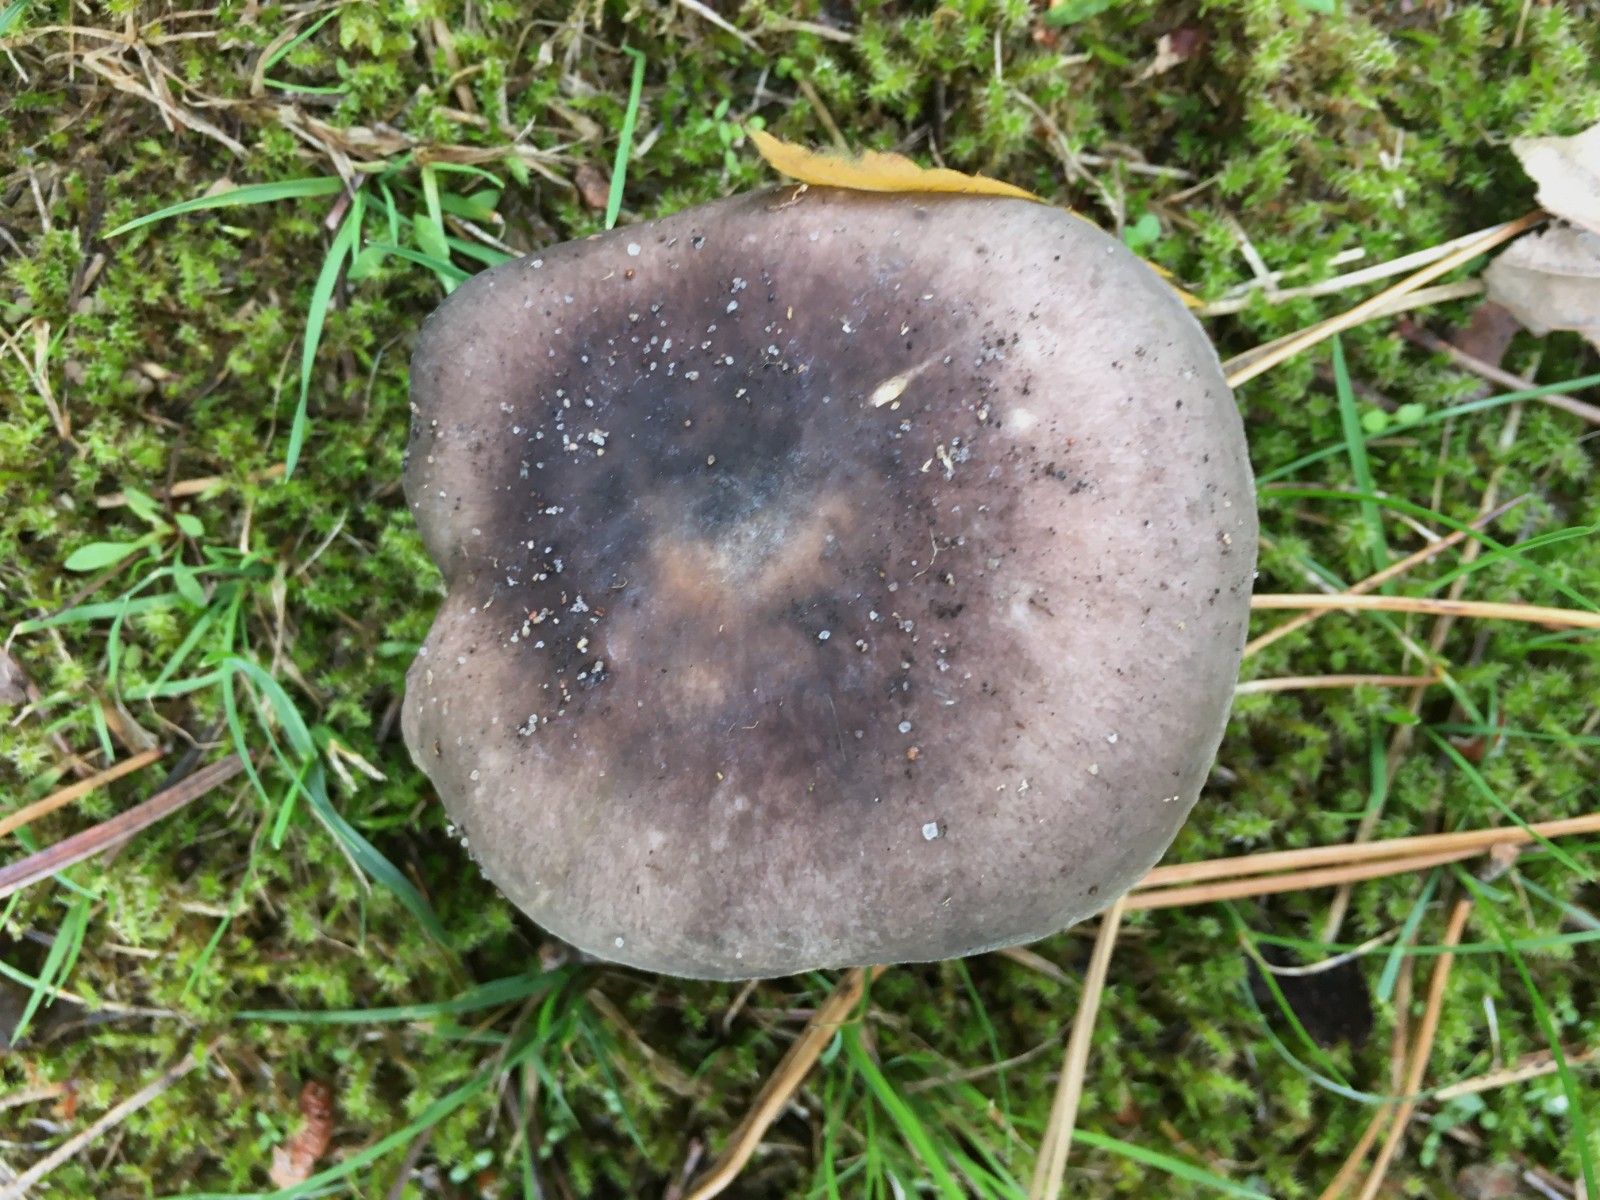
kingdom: Fungi
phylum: Basidiomycota
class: Agaricomycetes
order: Russulales
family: Russulaceae
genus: Russula
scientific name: Russula parazurea
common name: blågrå skørhat
